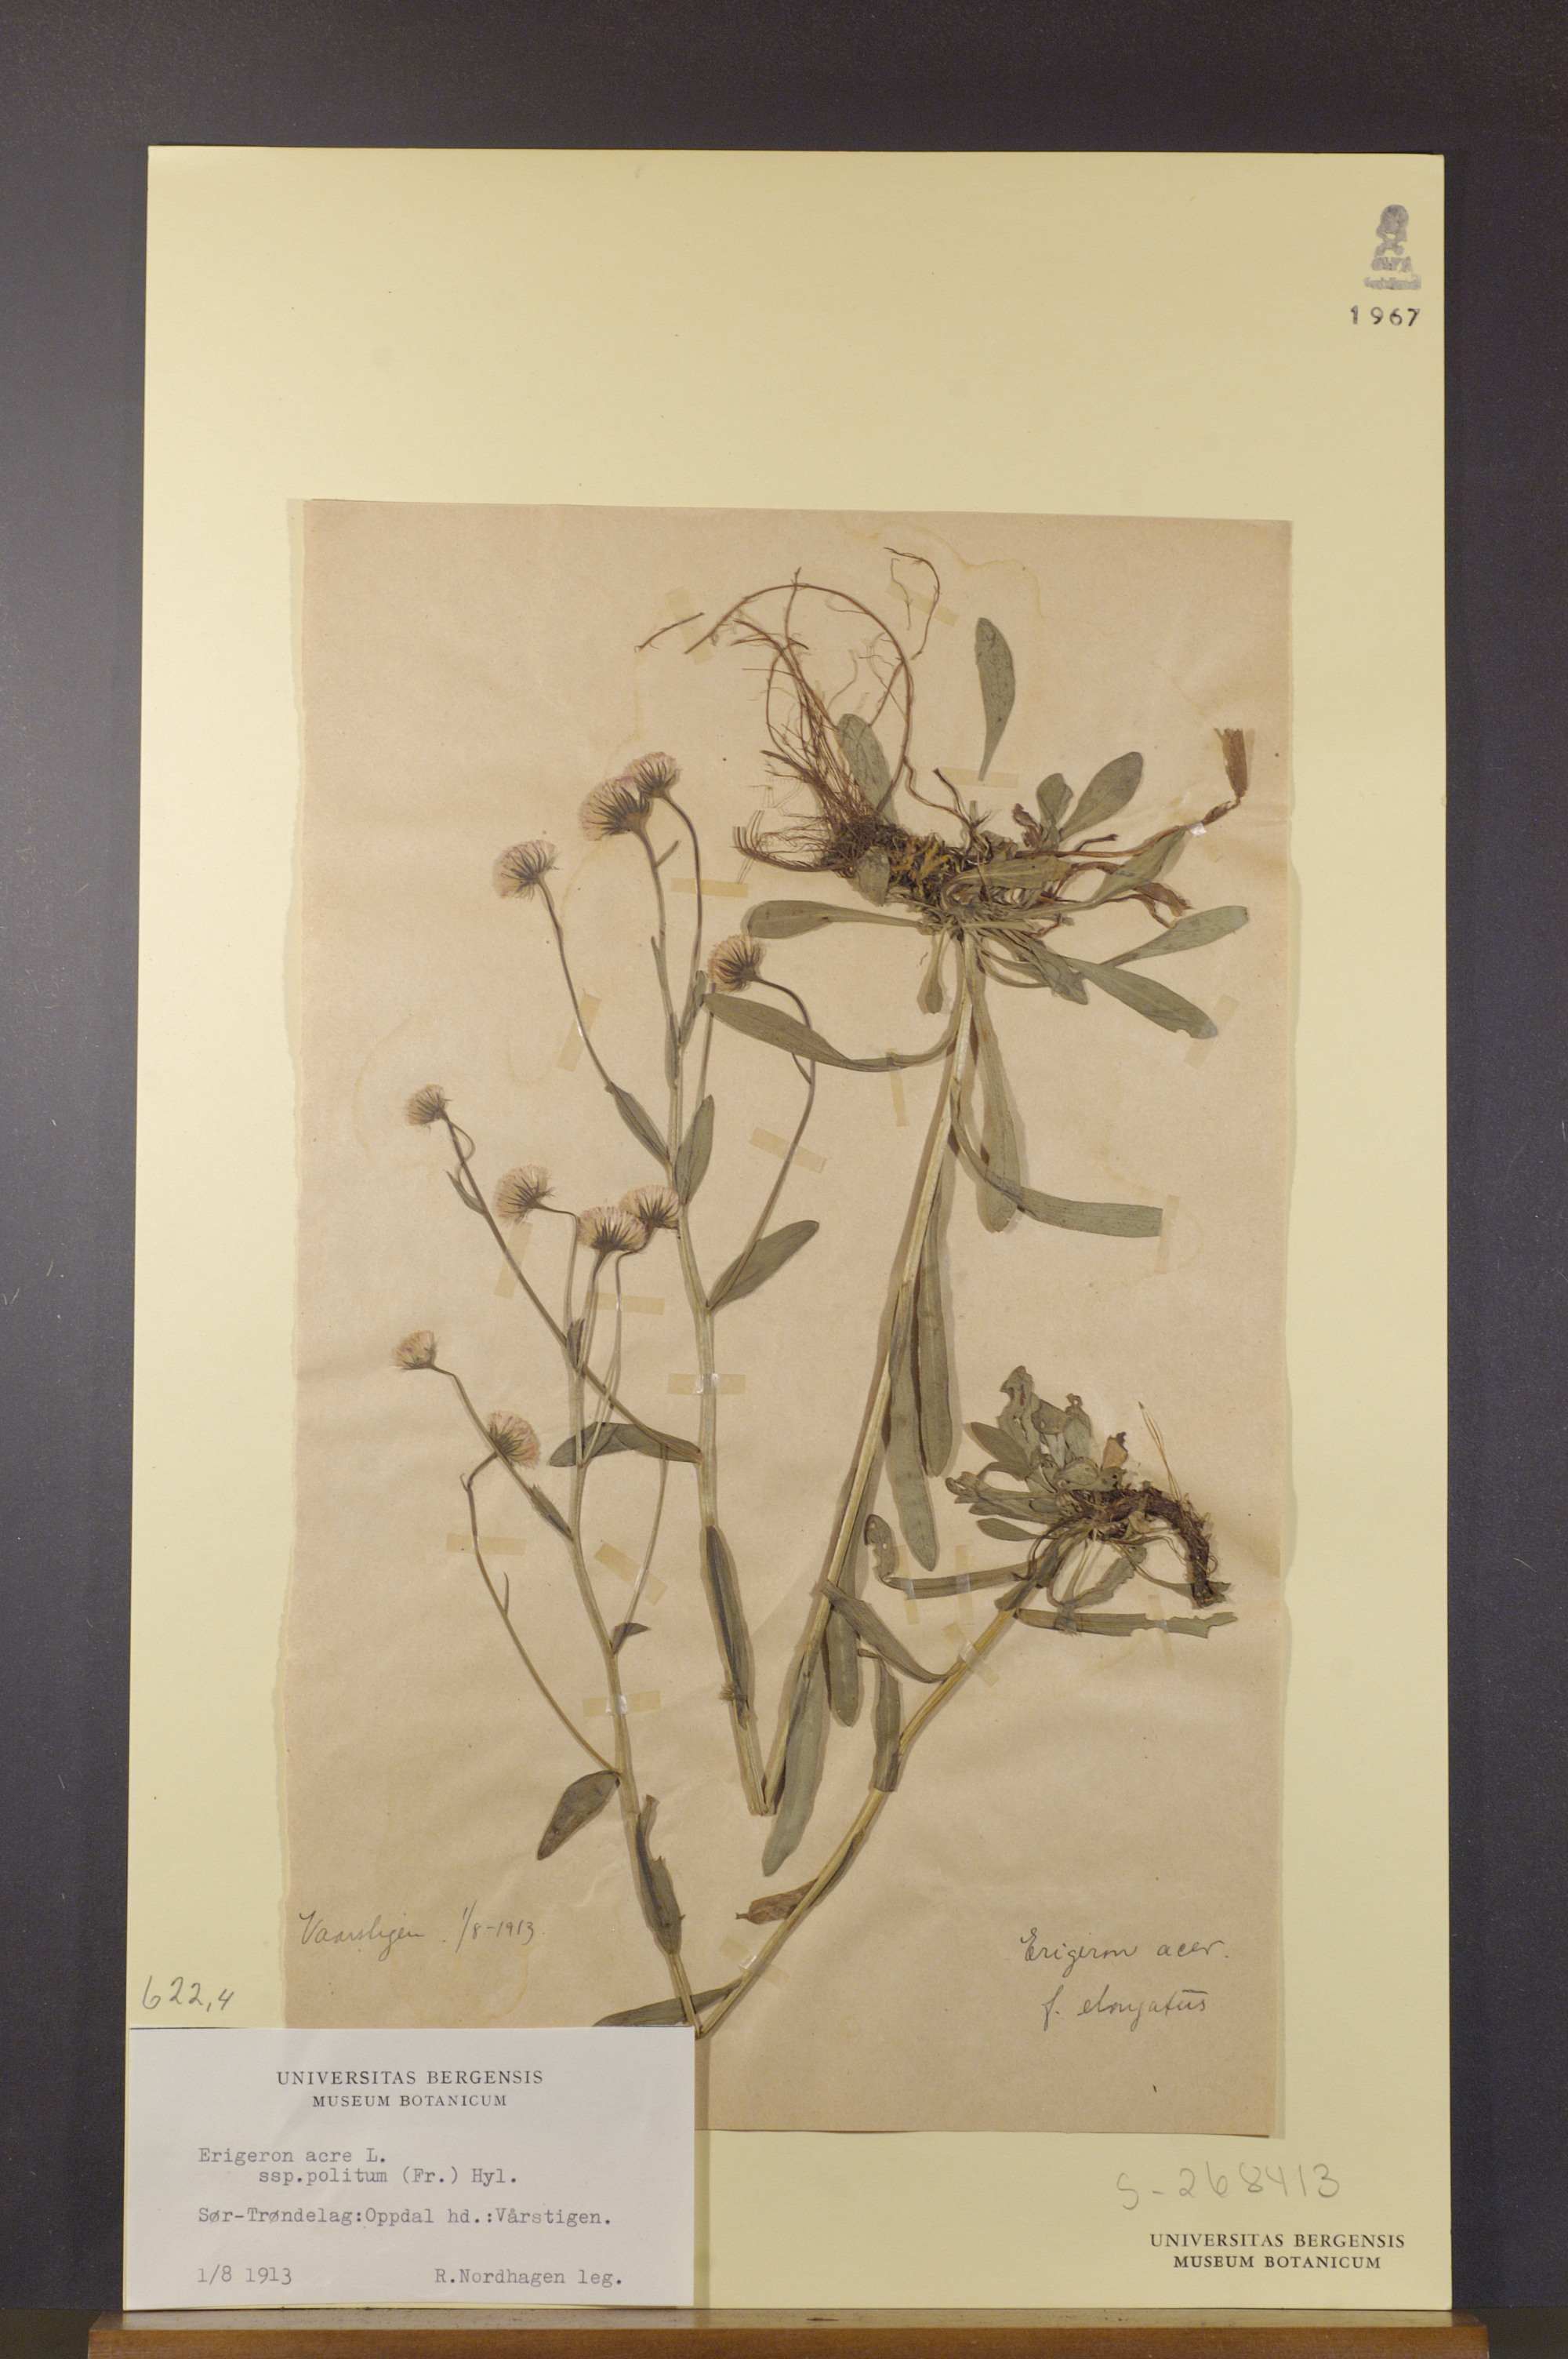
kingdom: Plantae
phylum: Tracheophyta
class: Magnoliopsida
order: Asterales
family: Asteraceae
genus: Erigeron
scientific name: Erigeron politus
